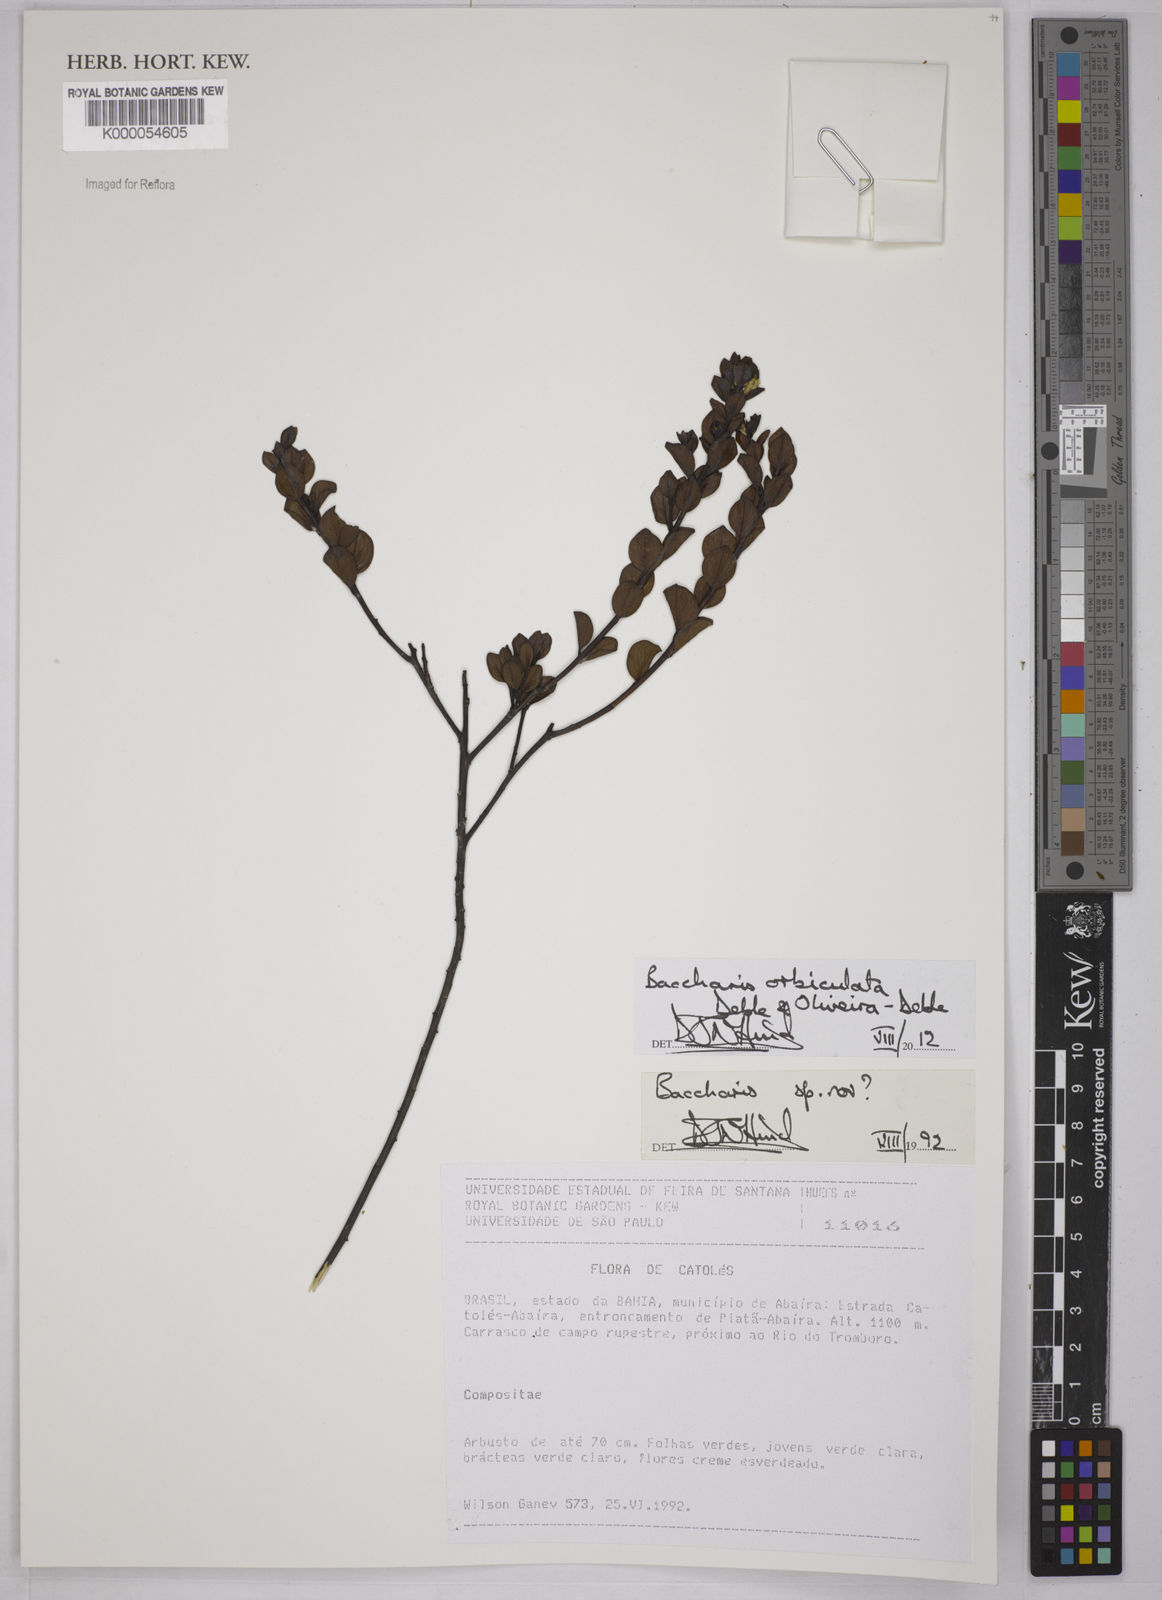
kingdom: Plantae
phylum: Tracheophyta
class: Magnoliopsida
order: Asterales
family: Asteraceae
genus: Baccharis
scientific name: Baccharis
